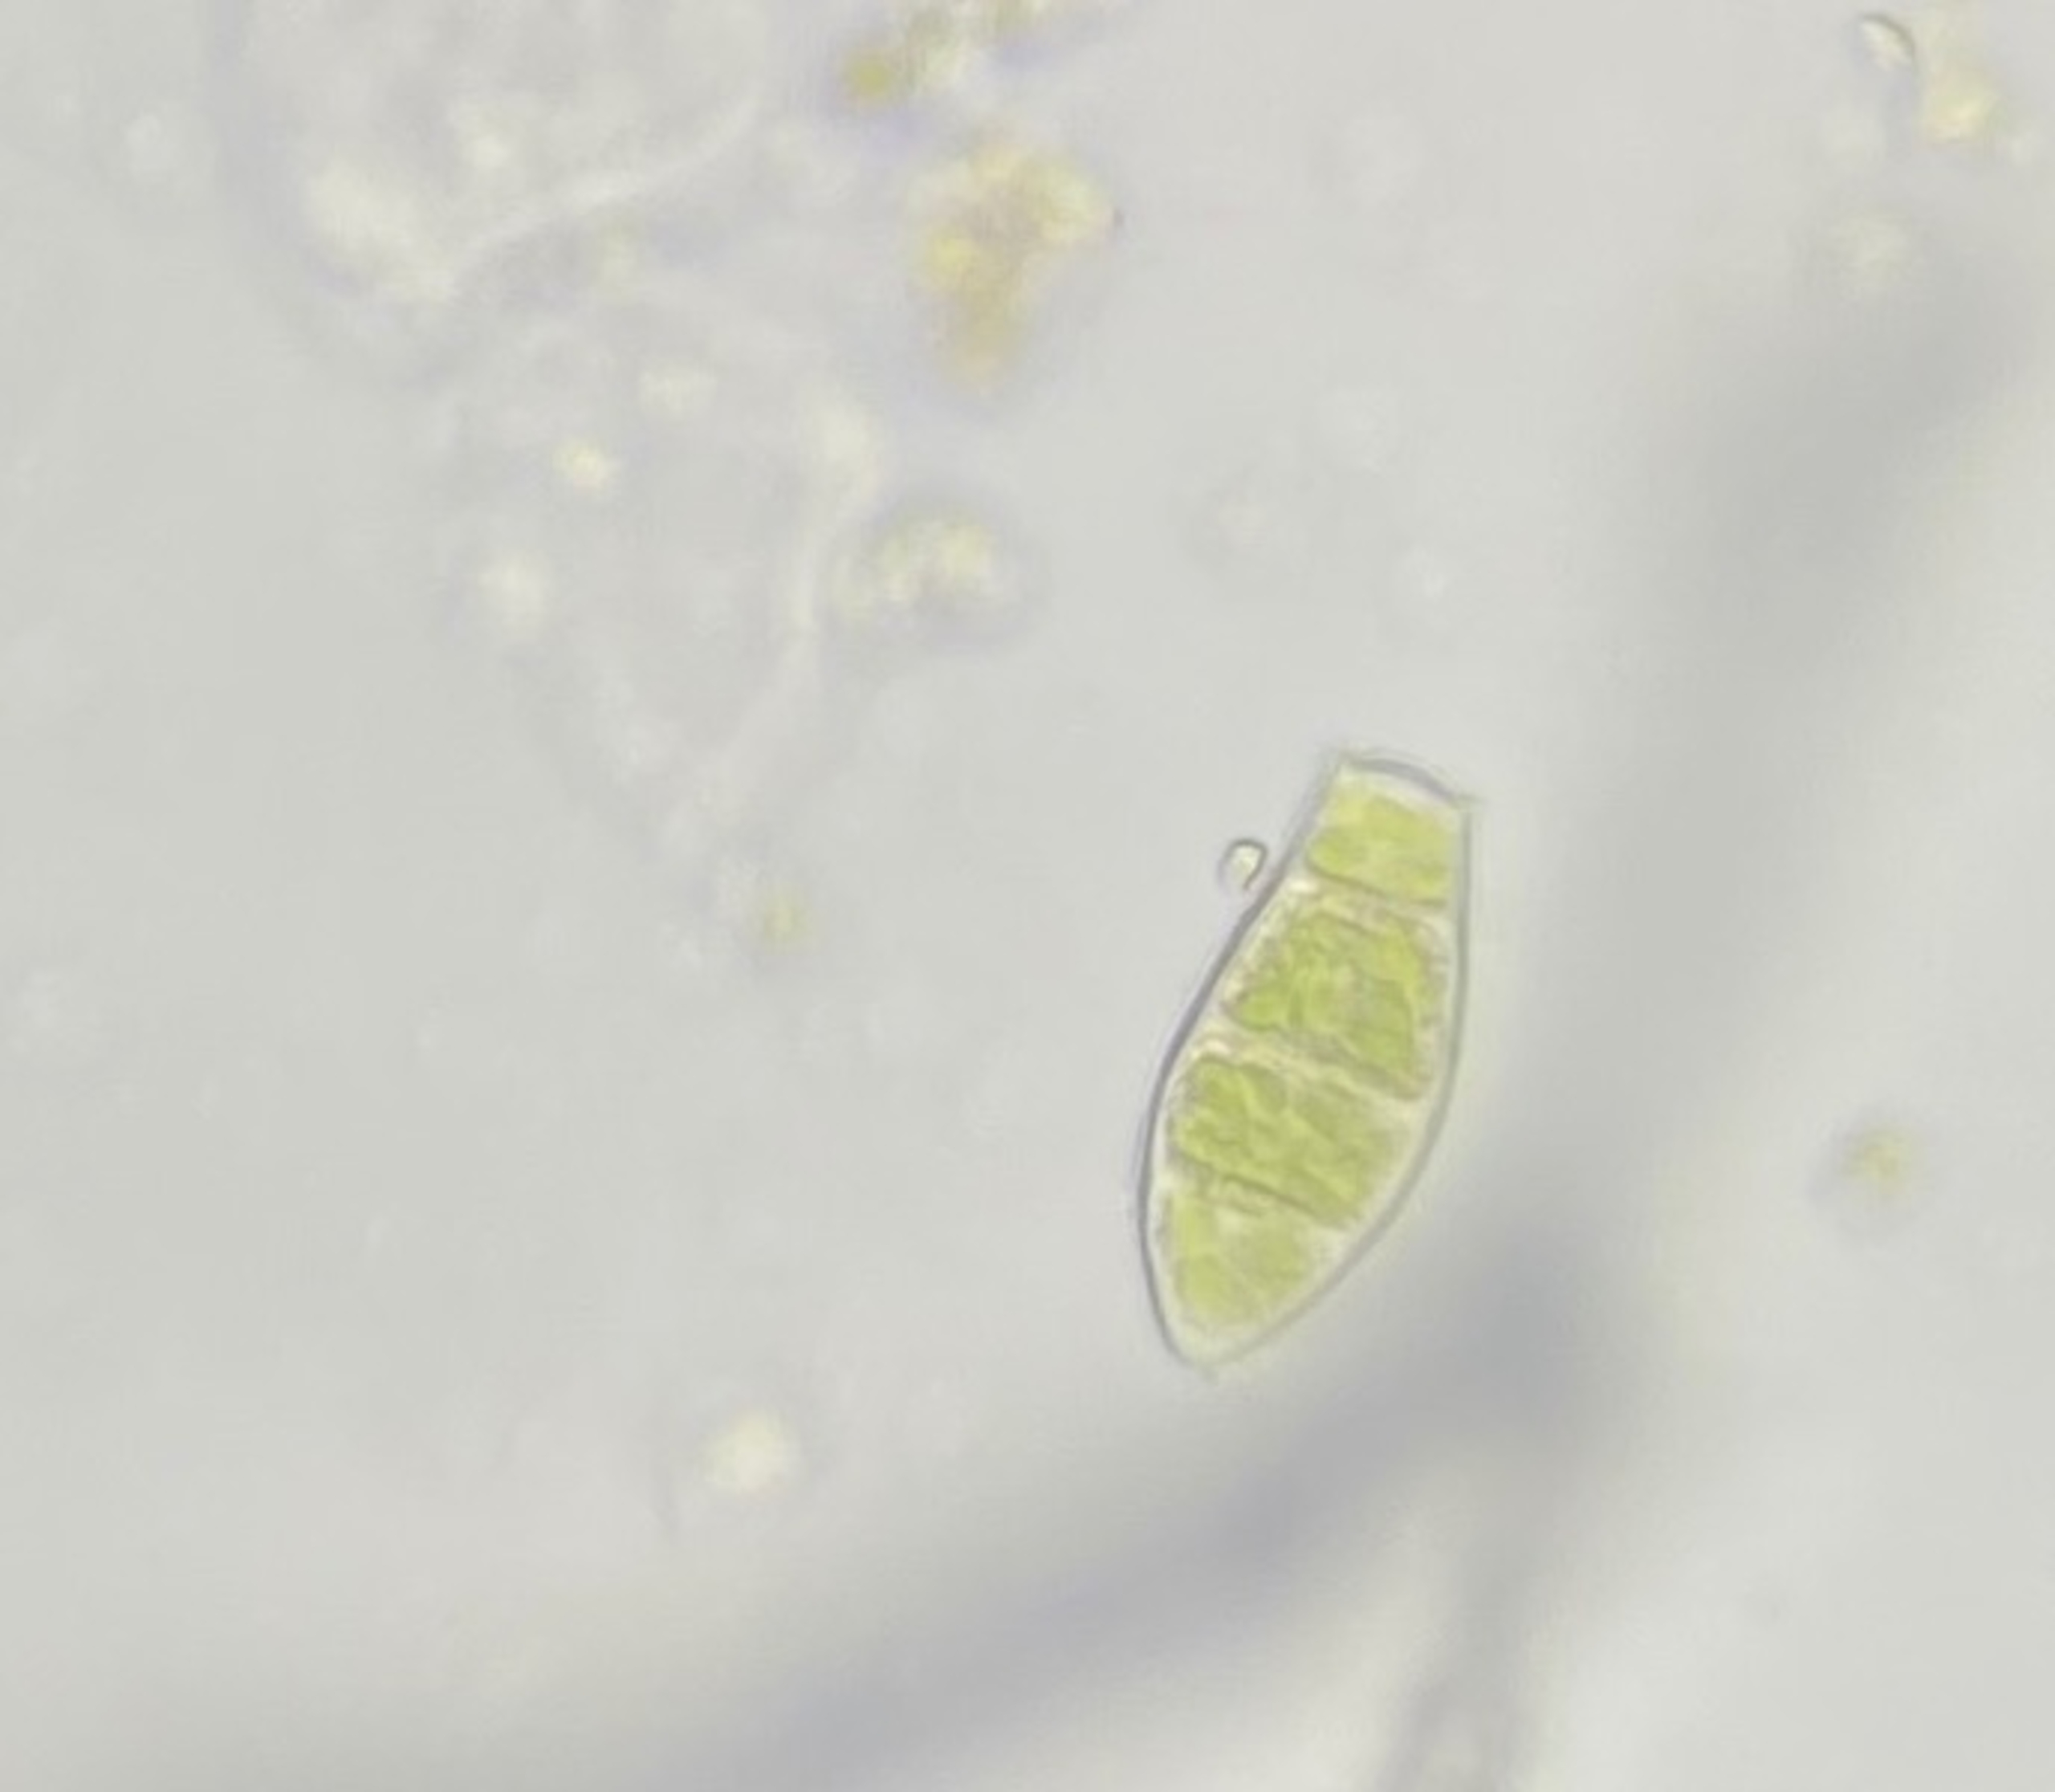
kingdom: Plantae
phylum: Bryophyta
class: Bryopsida
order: Orthotrichales
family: Orthotrichaceae
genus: Zygodon
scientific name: Zygodon rupestris
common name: Almindelig køllemos
